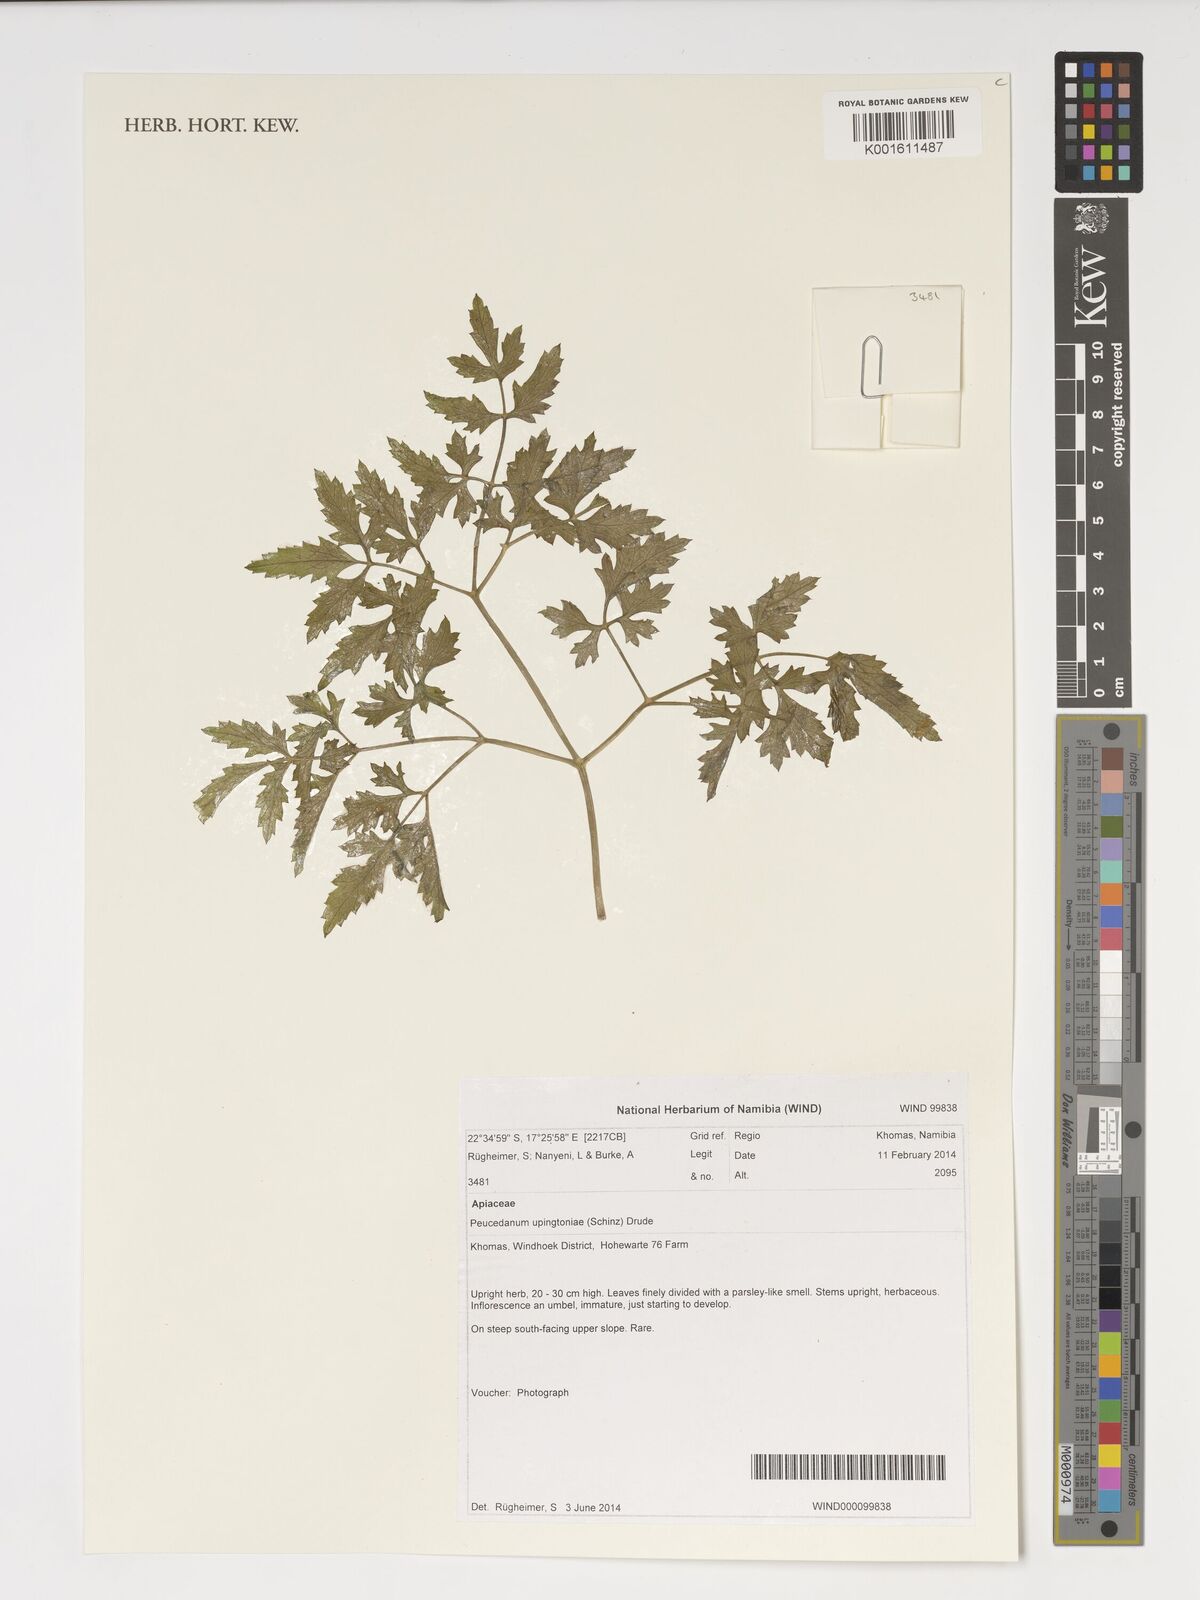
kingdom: Plantae
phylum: Tracheophyta
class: Magnoliopsida
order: Apiales
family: Apiaceae
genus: Lefebvrea
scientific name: Lefebvrea grantii
